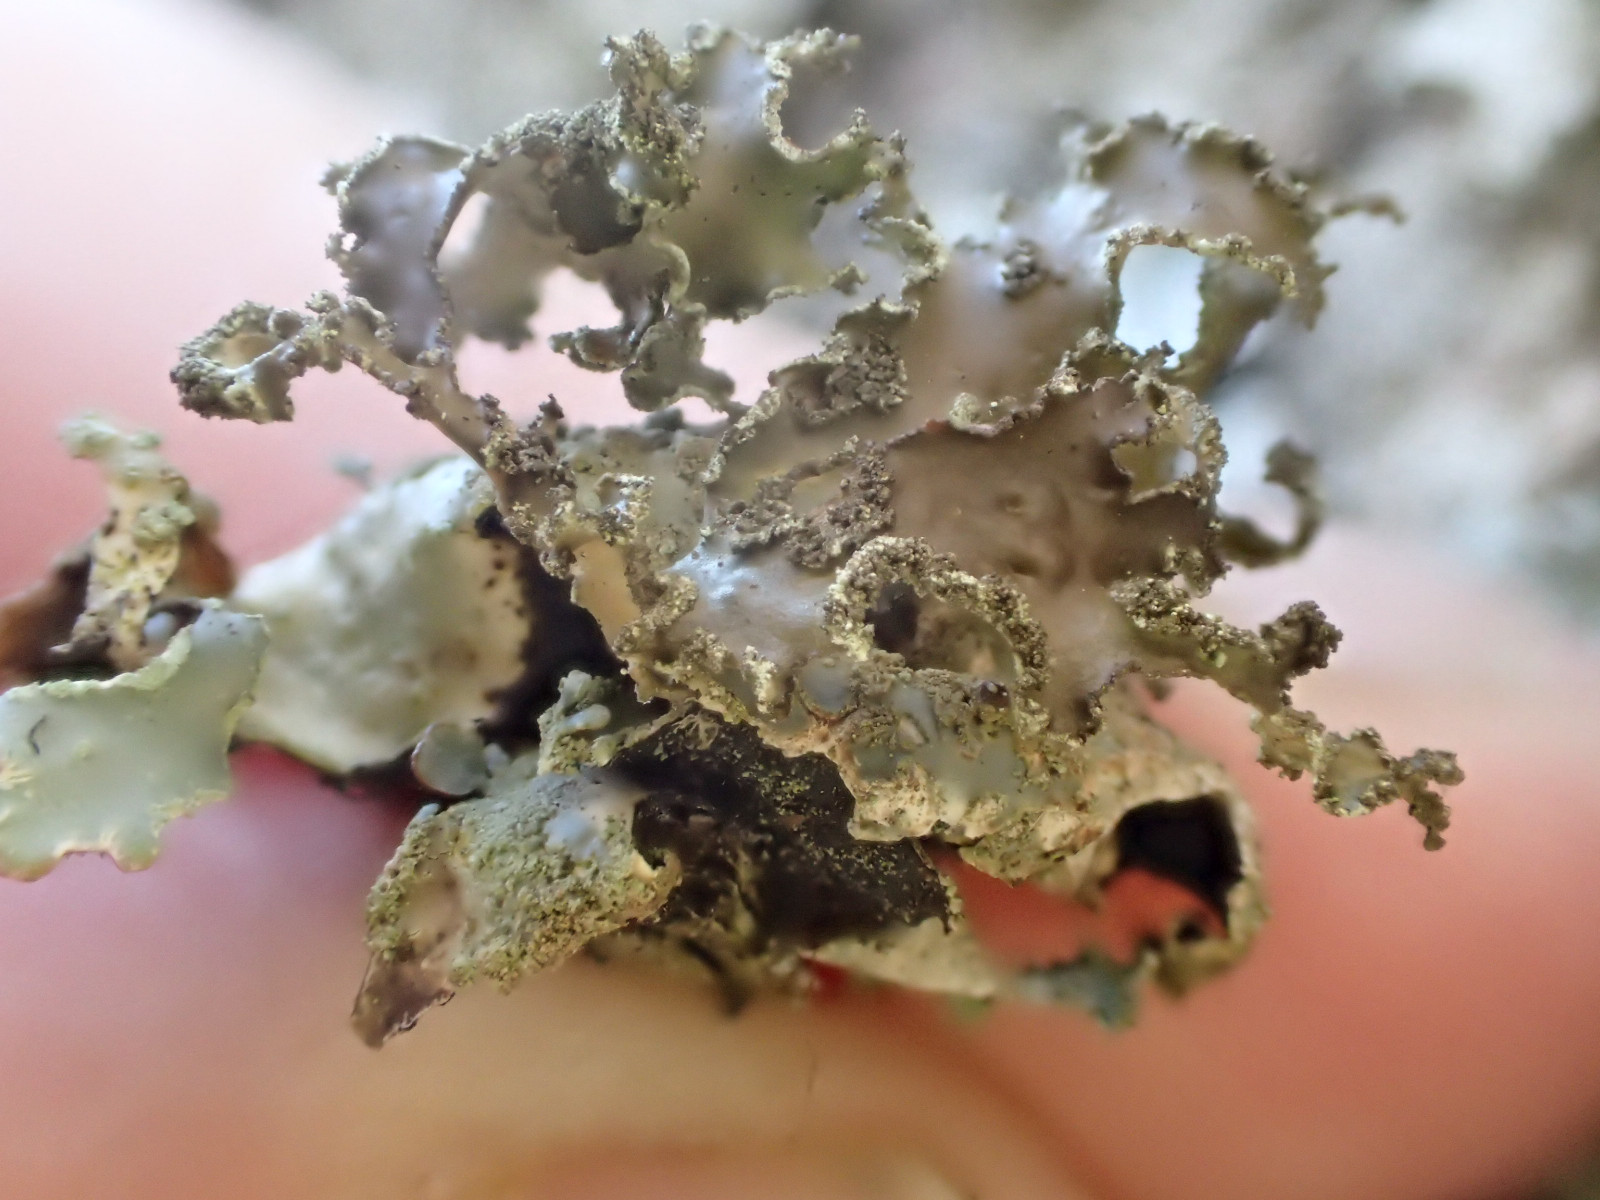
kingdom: Fungi
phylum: Ascomycota
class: Lecanoromycetes
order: Lecanorales
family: Parmeliaceae
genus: Platismatia
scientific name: Platismatia glauca
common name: blågrå papirlav
